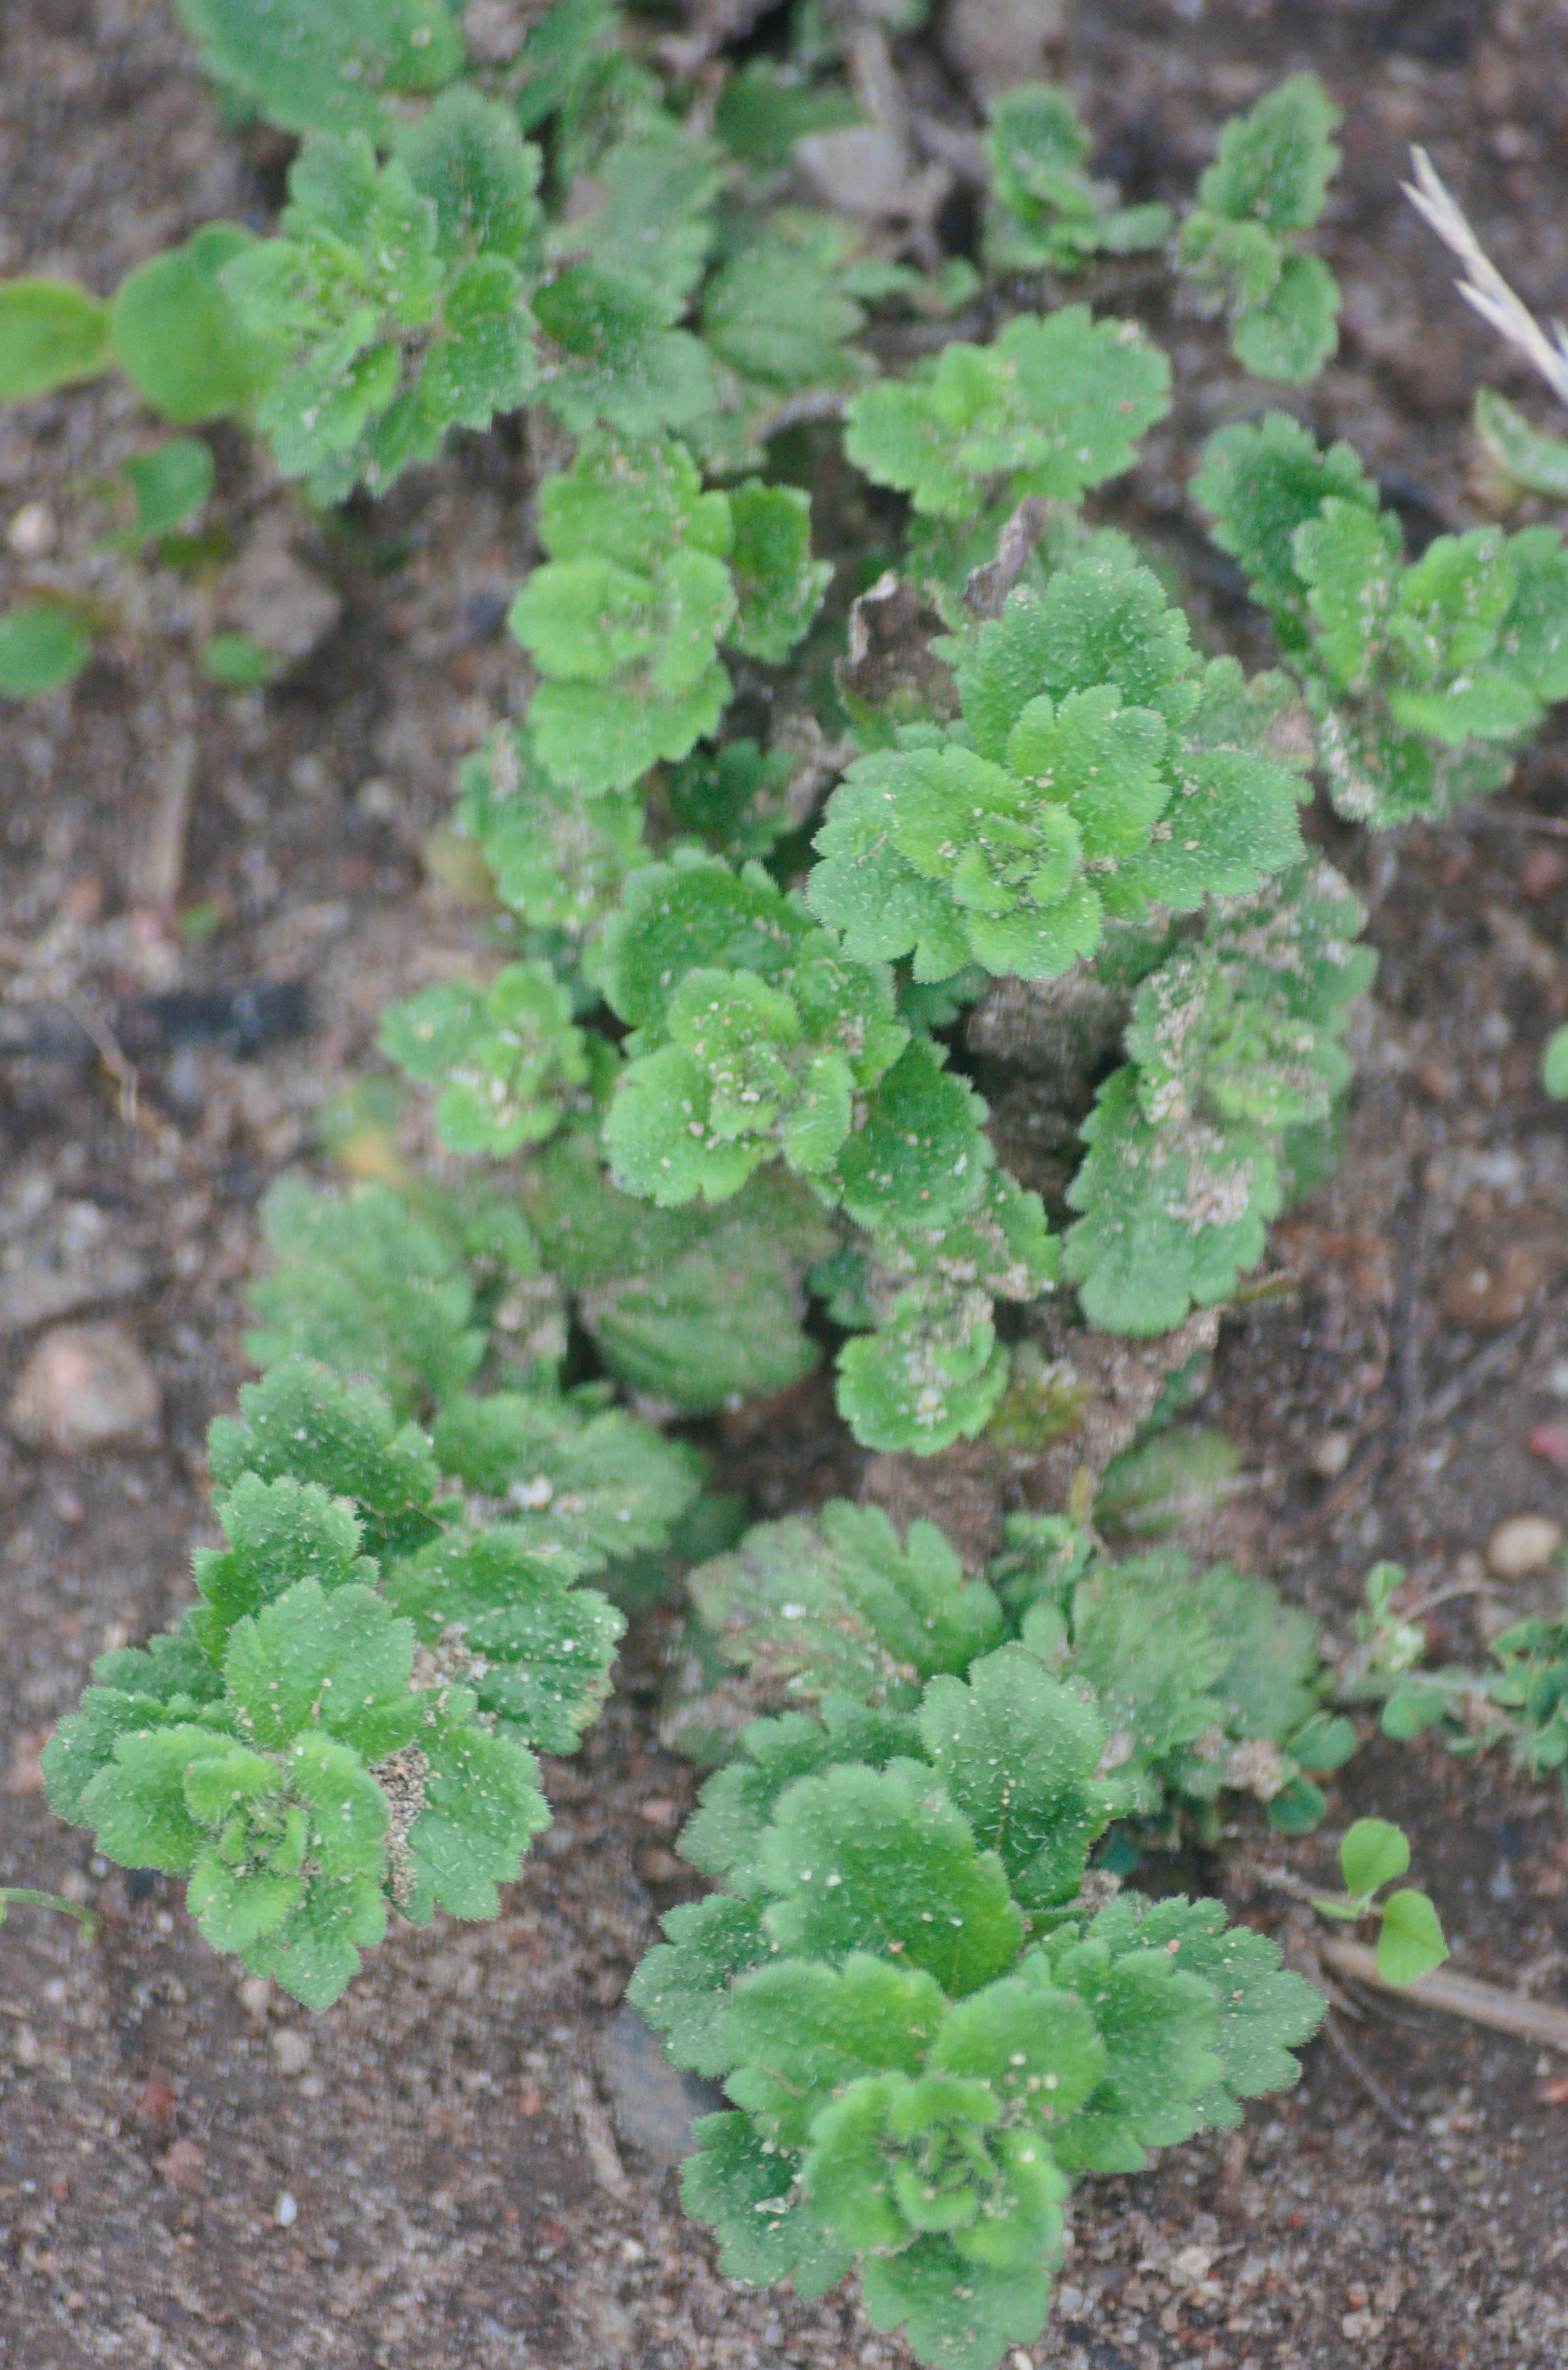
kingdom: Plantae
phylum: Tracheophyta
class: Magnoliopsida
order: Lamiales
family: Plantaginaceae
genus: Veronica
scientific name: Veronica persica
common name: Storkronet ærenpris
